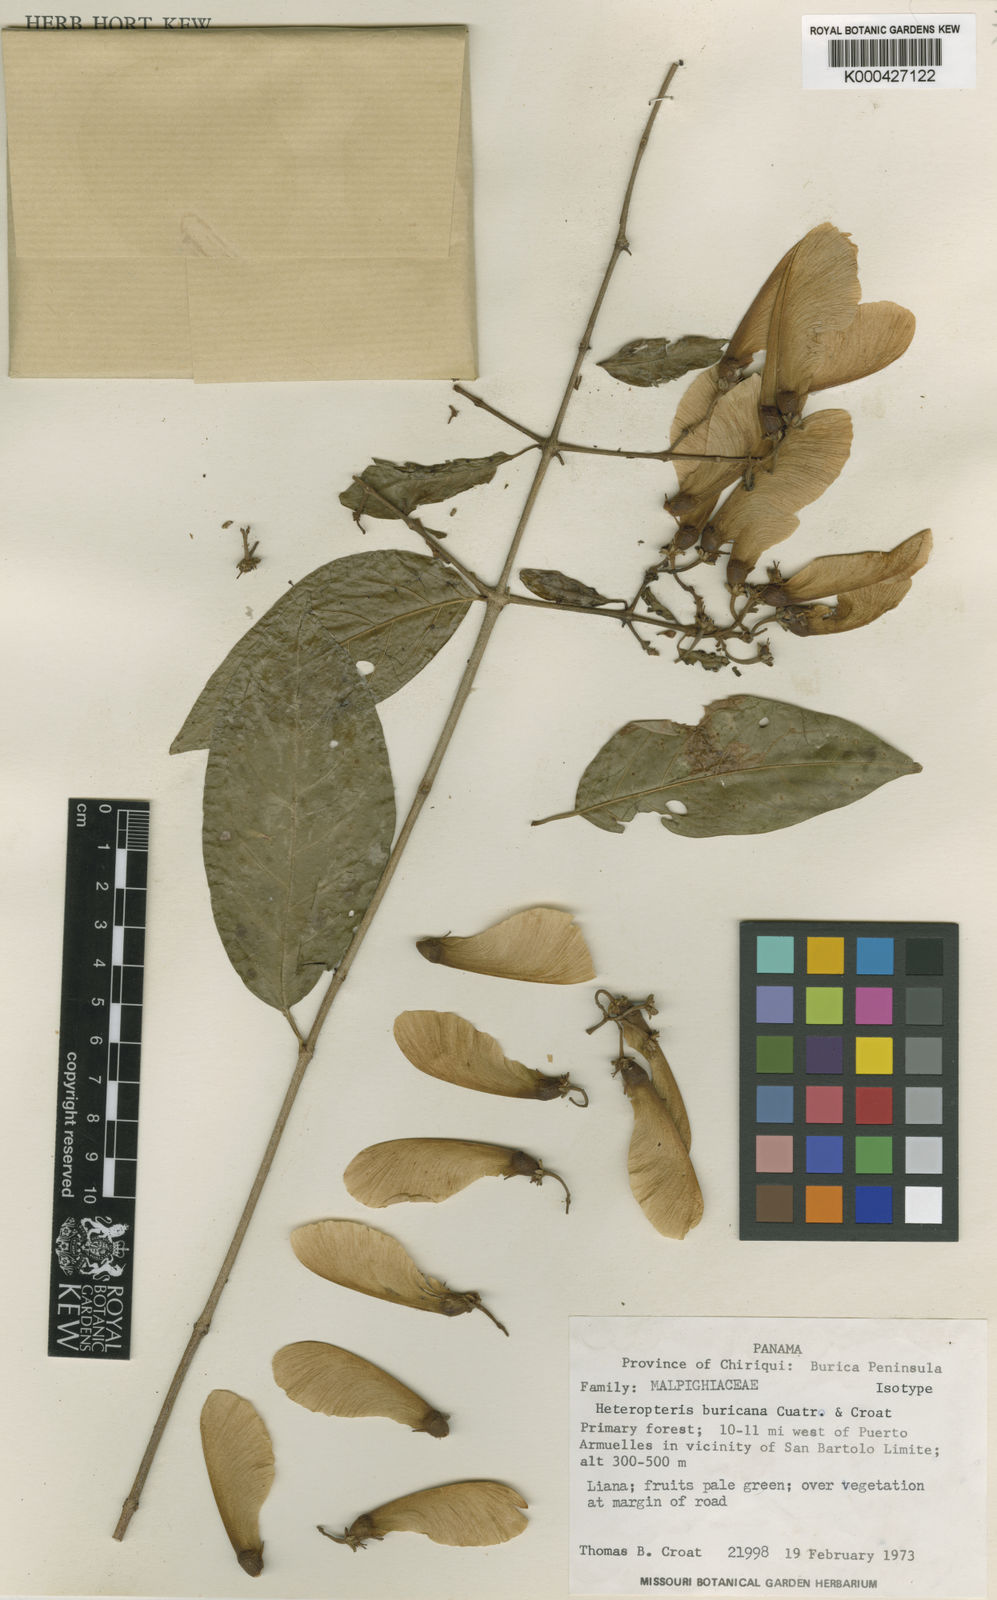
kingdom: Plantae
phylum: Tracheophyta
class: Magnoliopsida
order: Malpighiales
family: Malpighiaceae
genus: Heteropterys
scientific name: Heteropterys buricana
